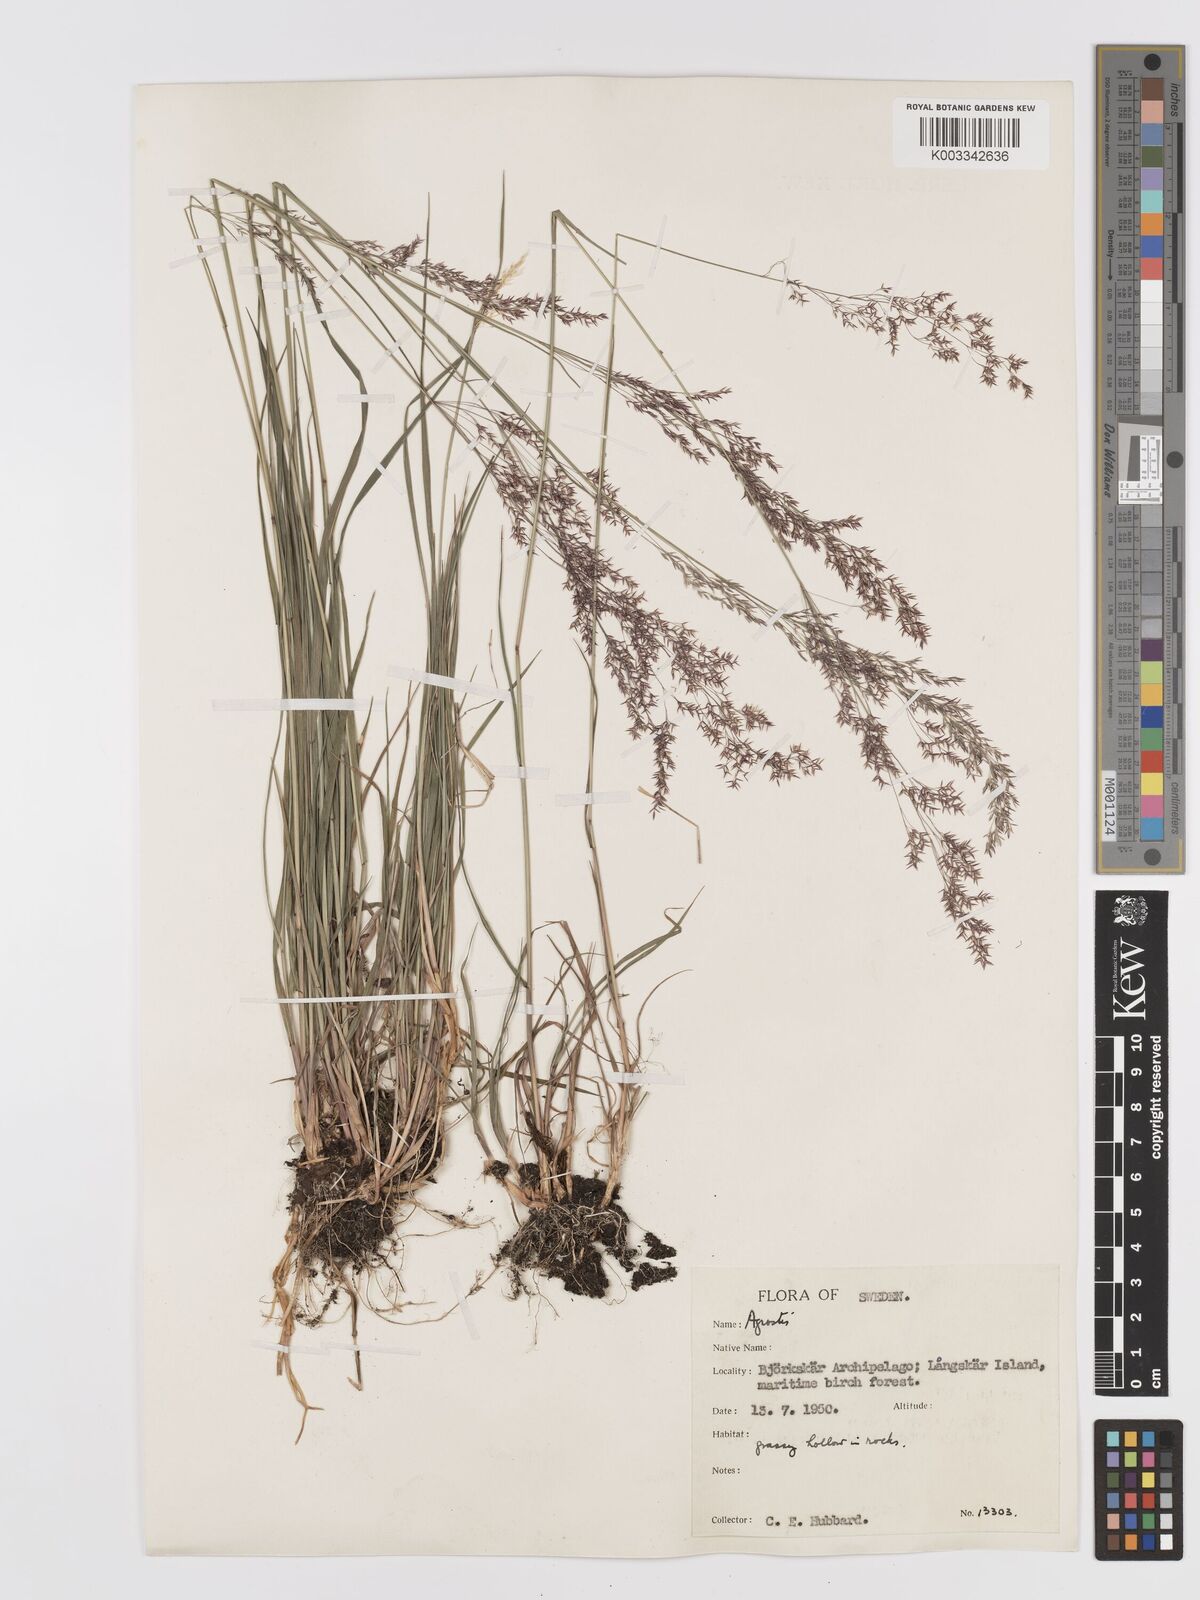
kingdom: Plantae
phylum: Tracheophyta
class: Liliopsida
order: Poales
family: Poaceae
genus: Agrostis
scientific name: Agrostis
